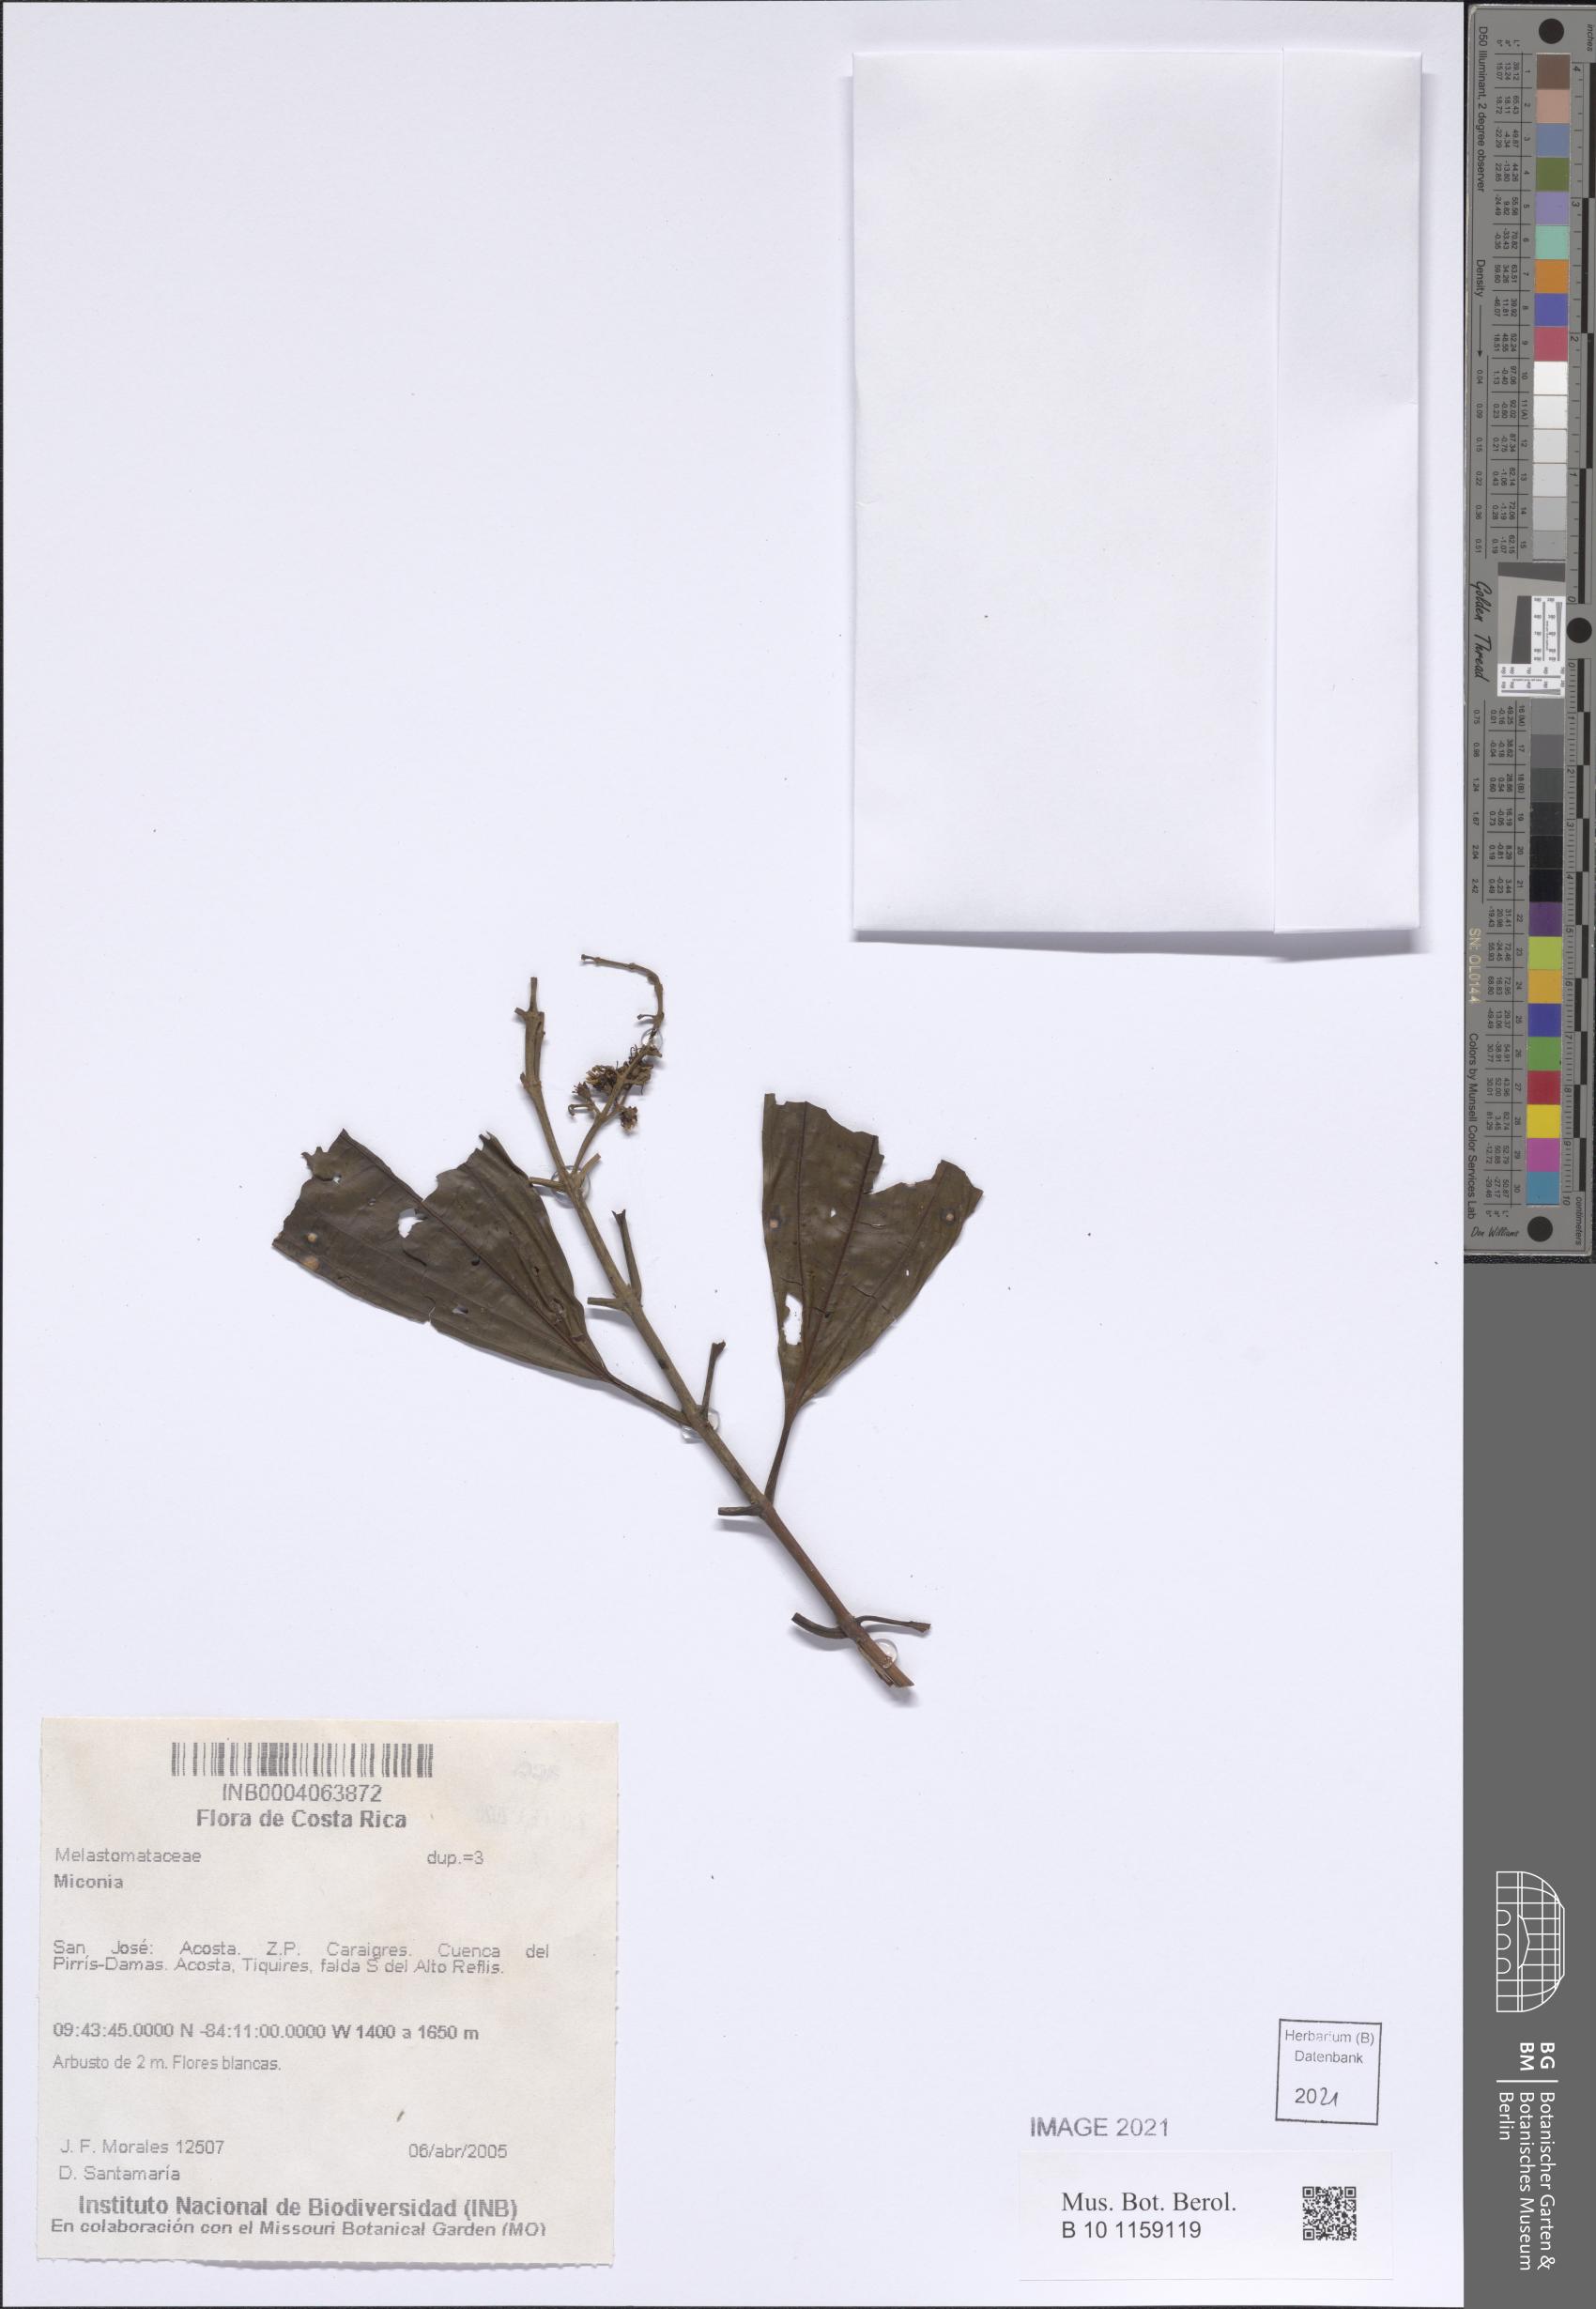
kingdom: Plantae
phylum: Tracheophyta
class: Magnoliopsida
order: Myrtales
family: Melastomataceae
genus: Miconia
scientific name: Miconia
